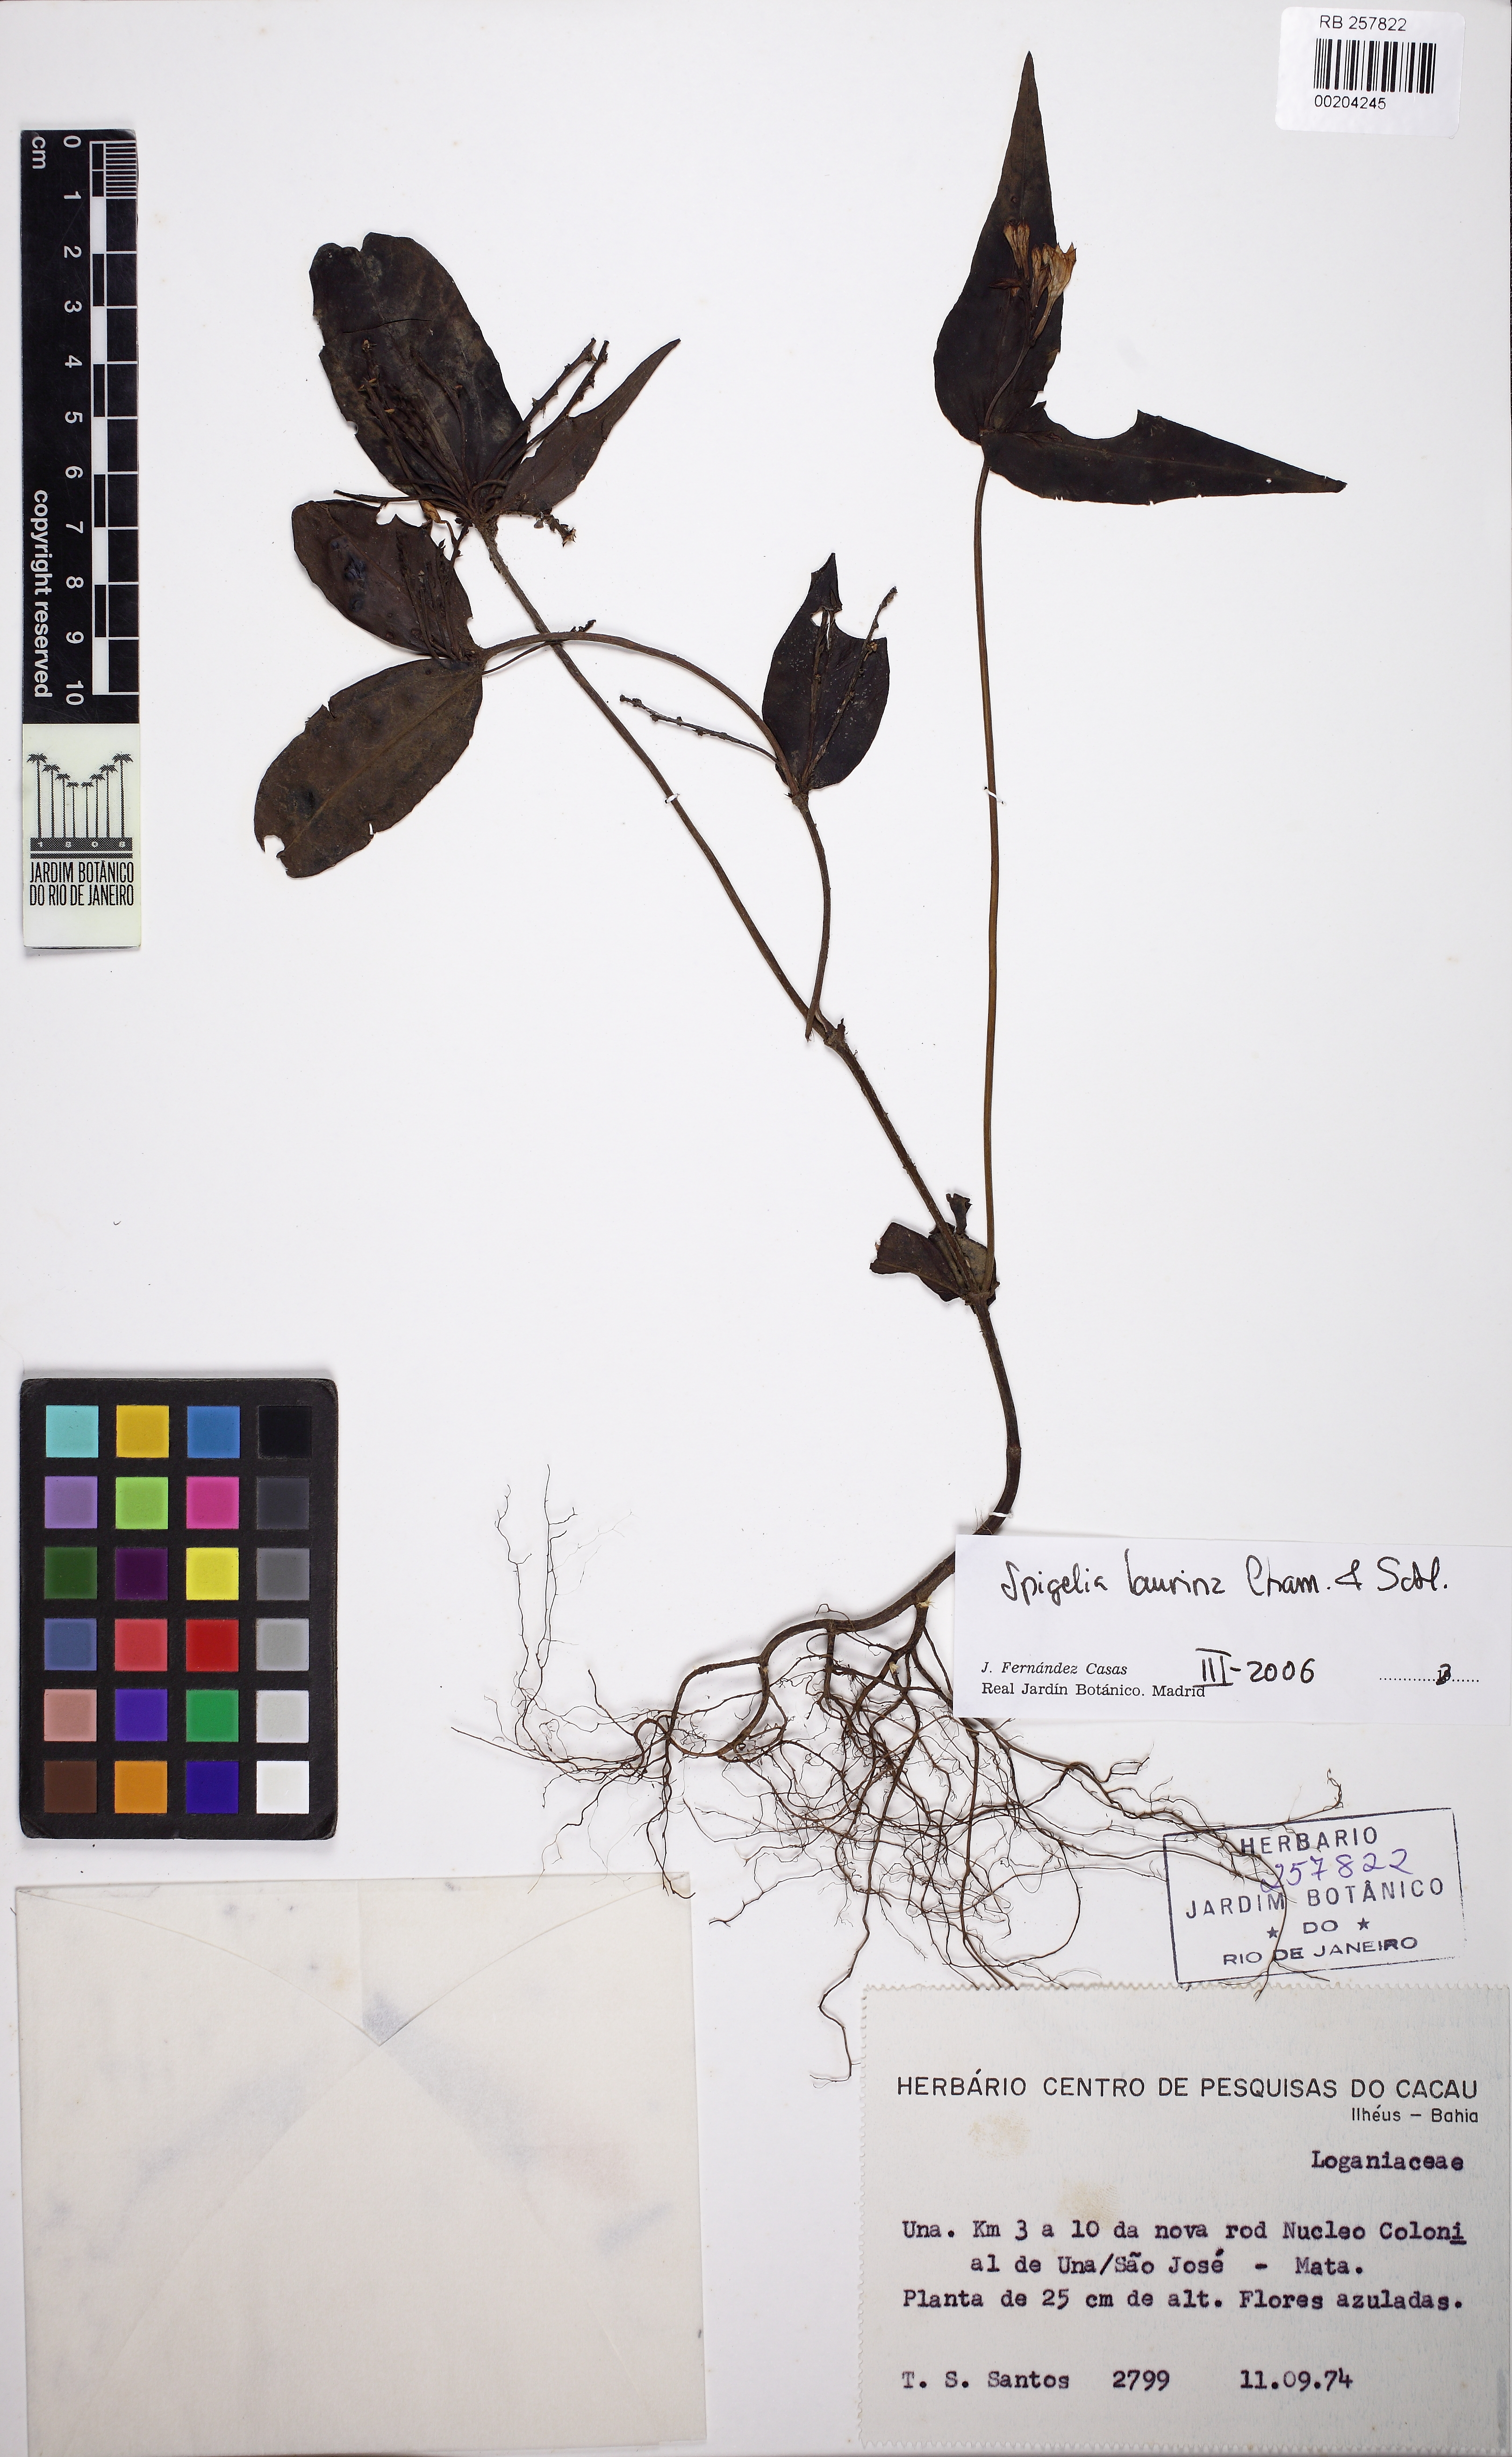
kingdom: Plantae
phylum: Tracheophyta
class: Magnoliopsida
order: Gentianales
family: Loganiaceae
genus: Spigelia
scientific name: Spigelia laurina
